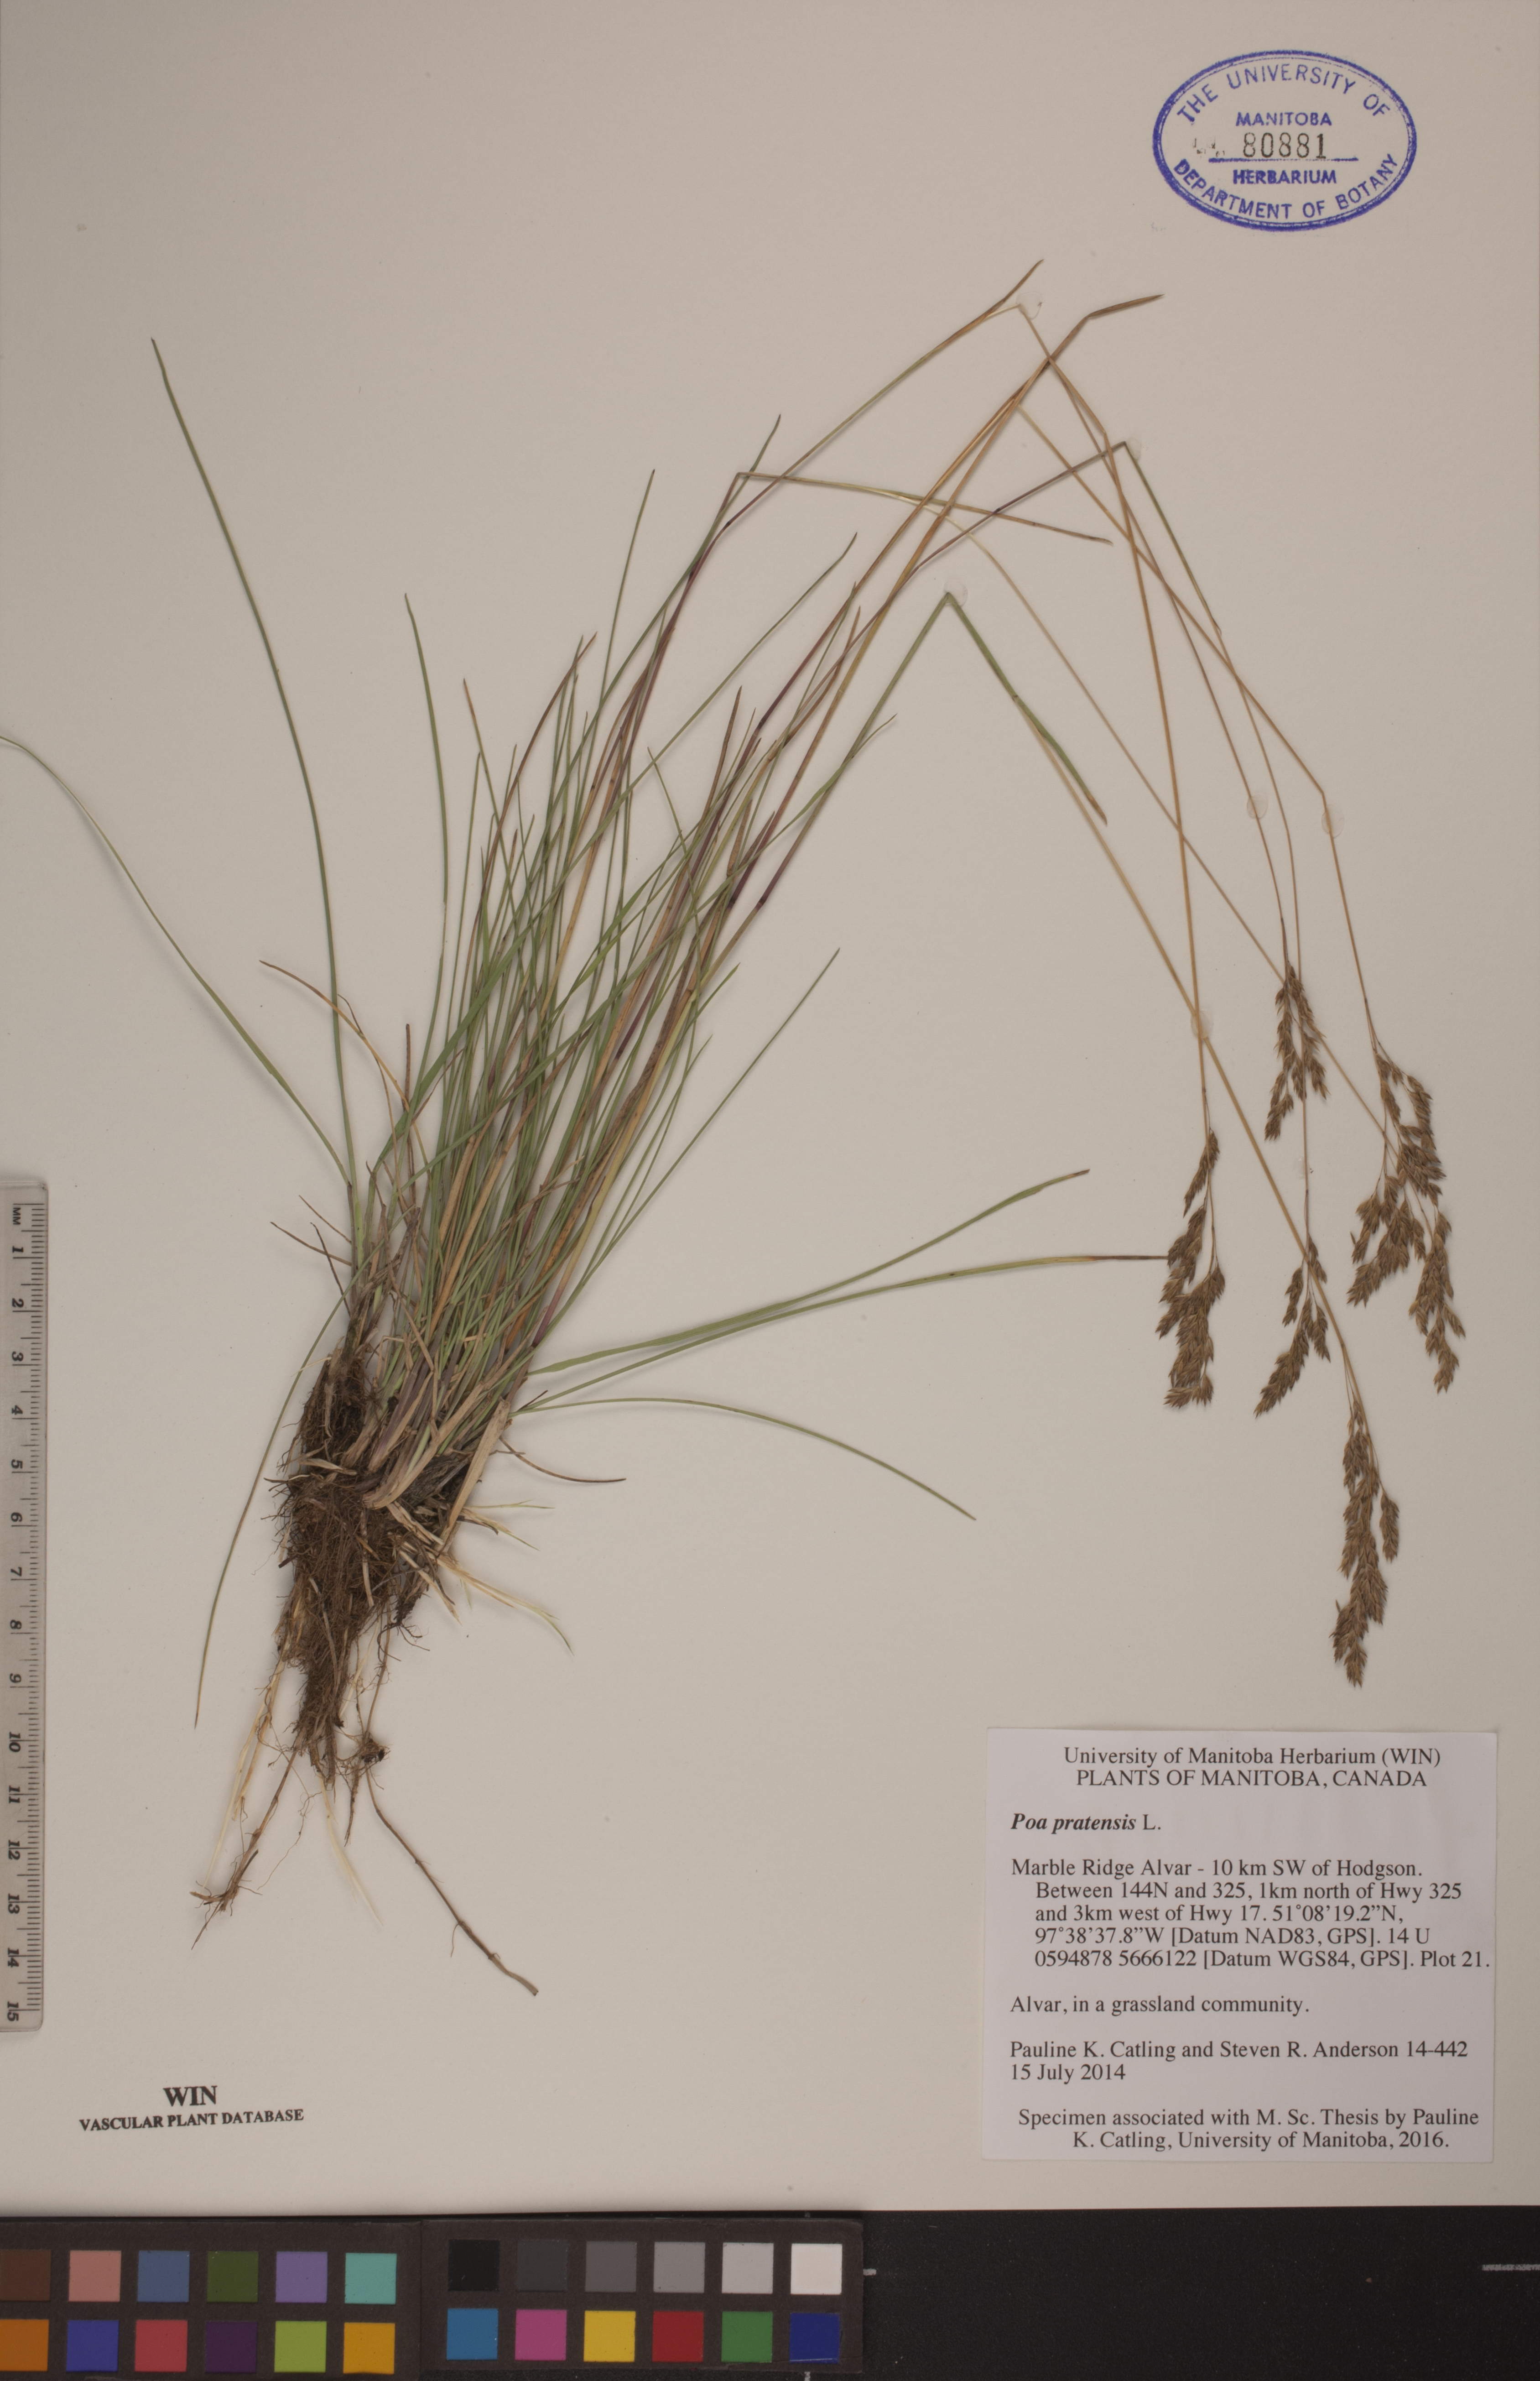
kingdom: Plantae
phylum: Tracheophyta
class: Liliopsida
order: Poales
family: Poaceae
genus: Poa
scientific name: Poa pratensis
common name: Kentucky bluegrass
